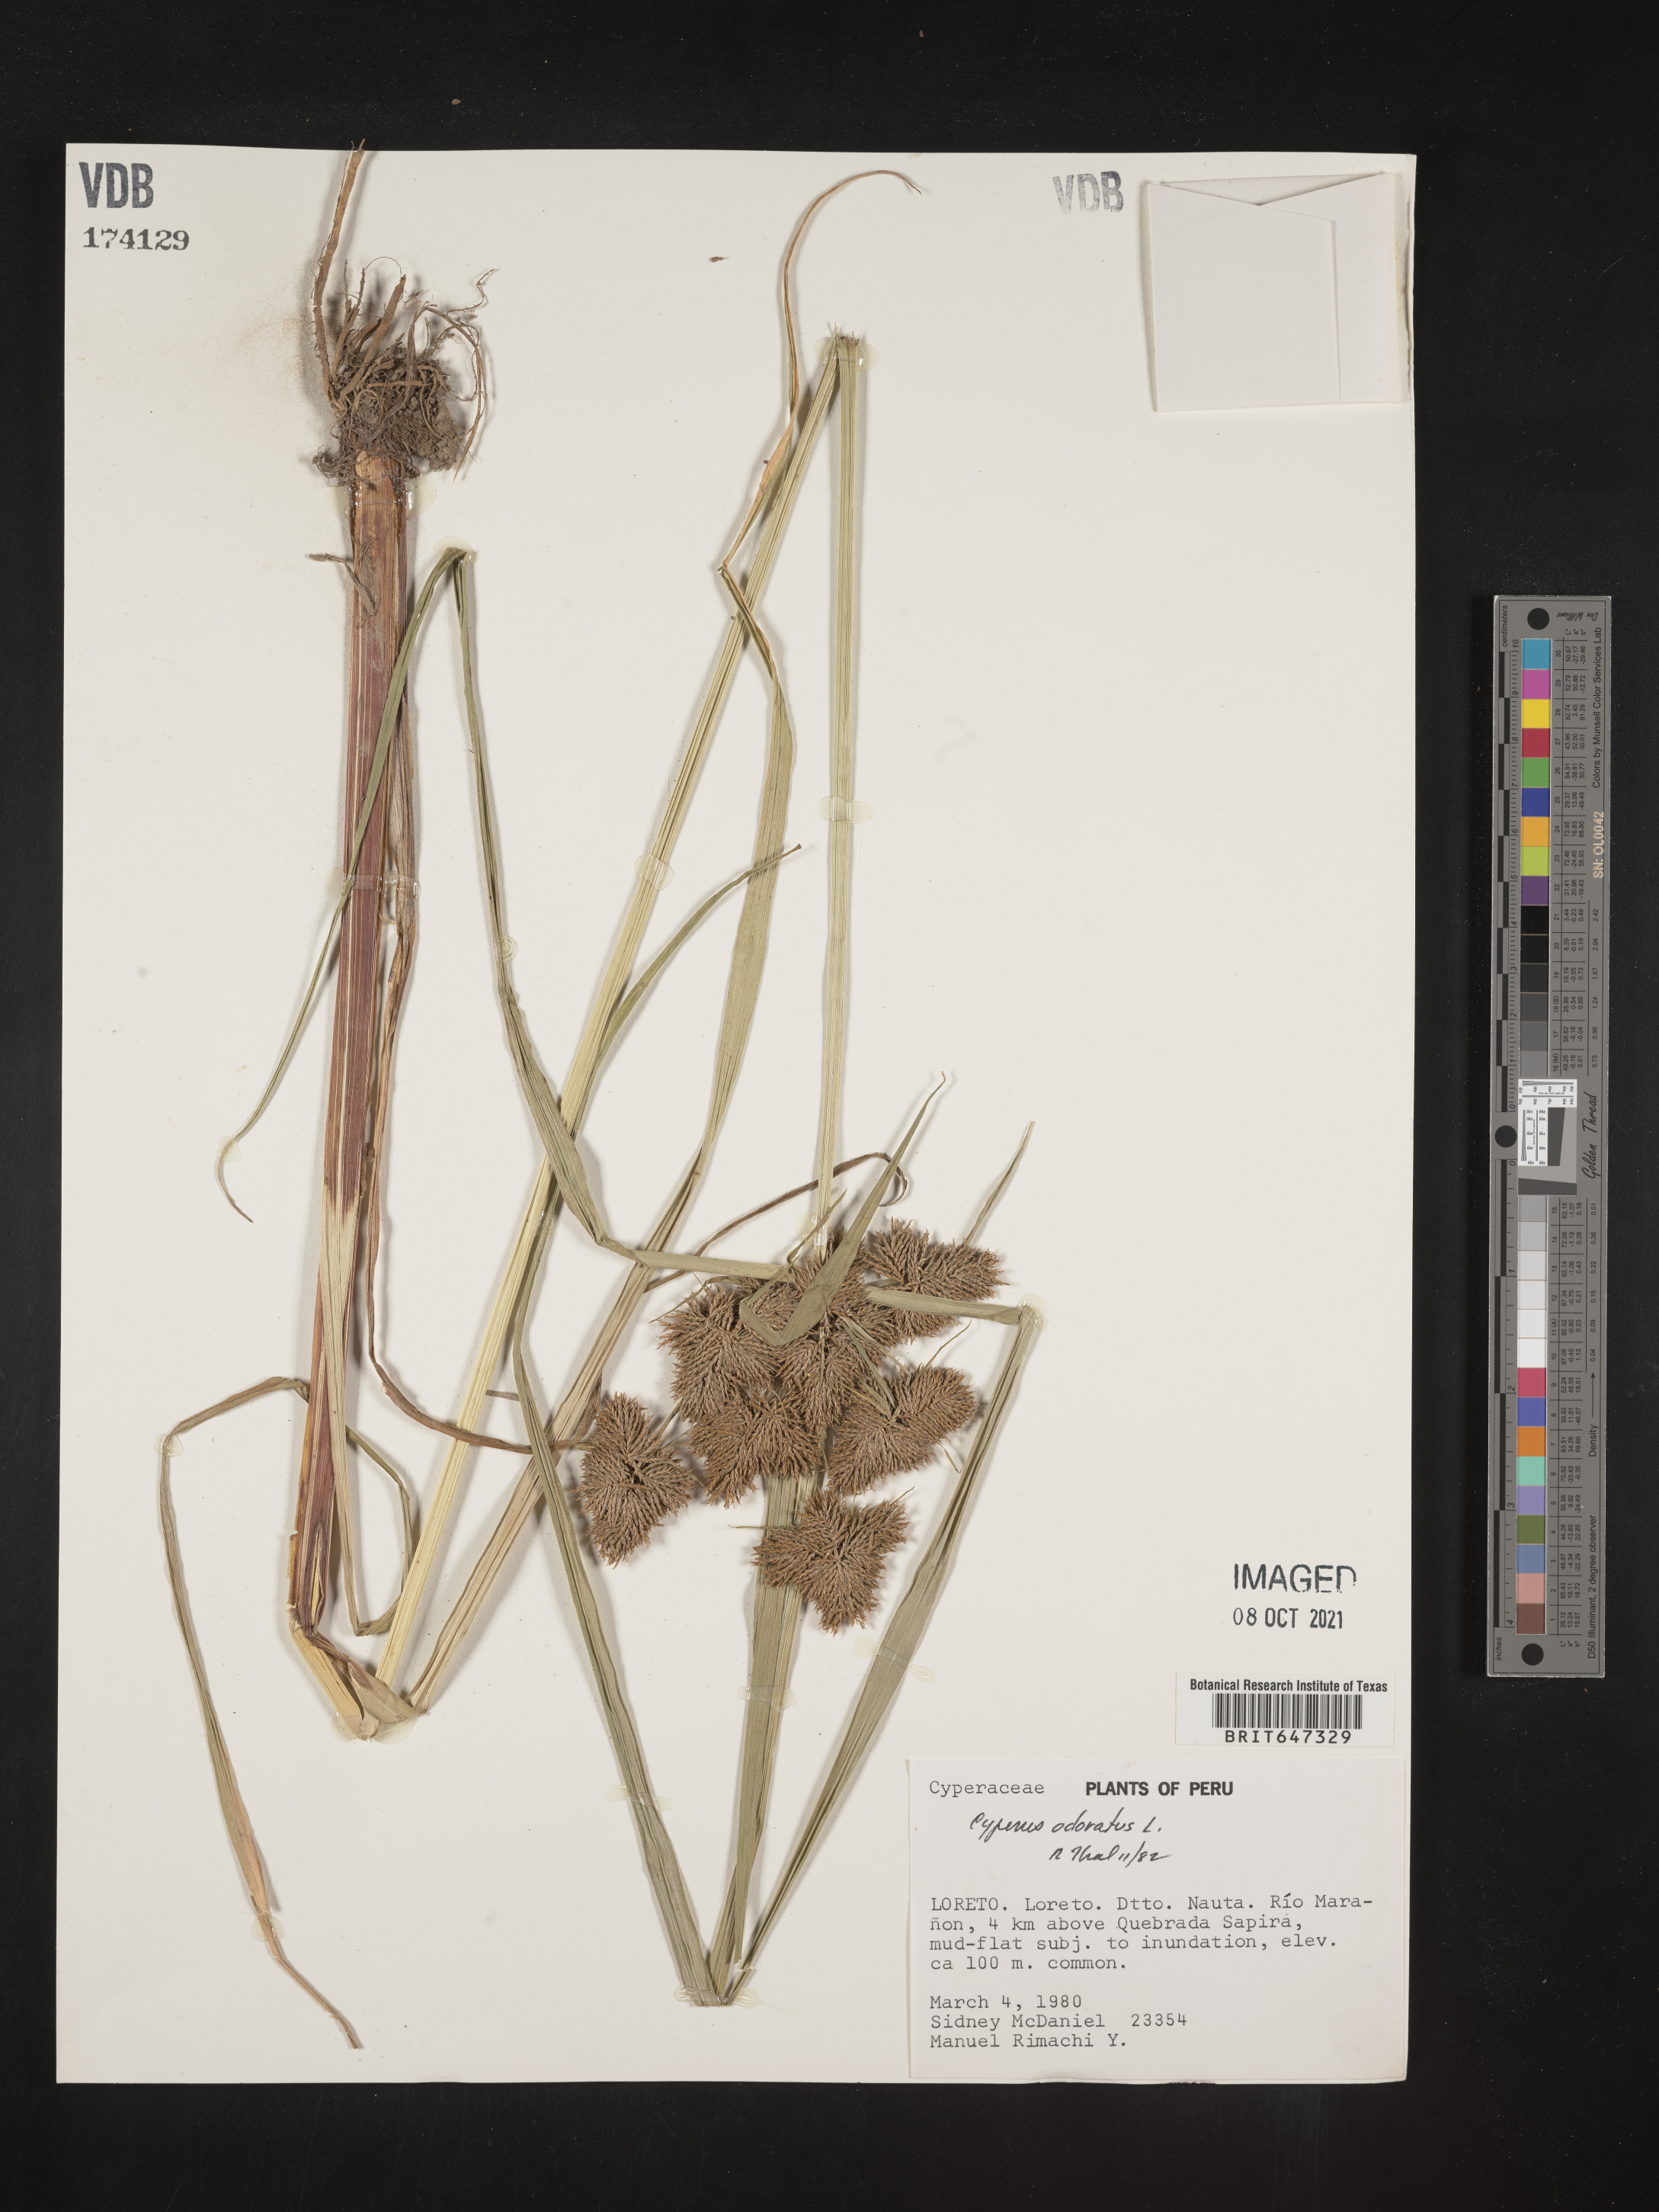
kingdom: Plantae
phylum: Tracheophyta
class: Liliopsida
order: Poales
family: Cyperaceae
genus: Cyperus
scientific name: Cyperus odoratus
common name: Fragrant flatsedge
